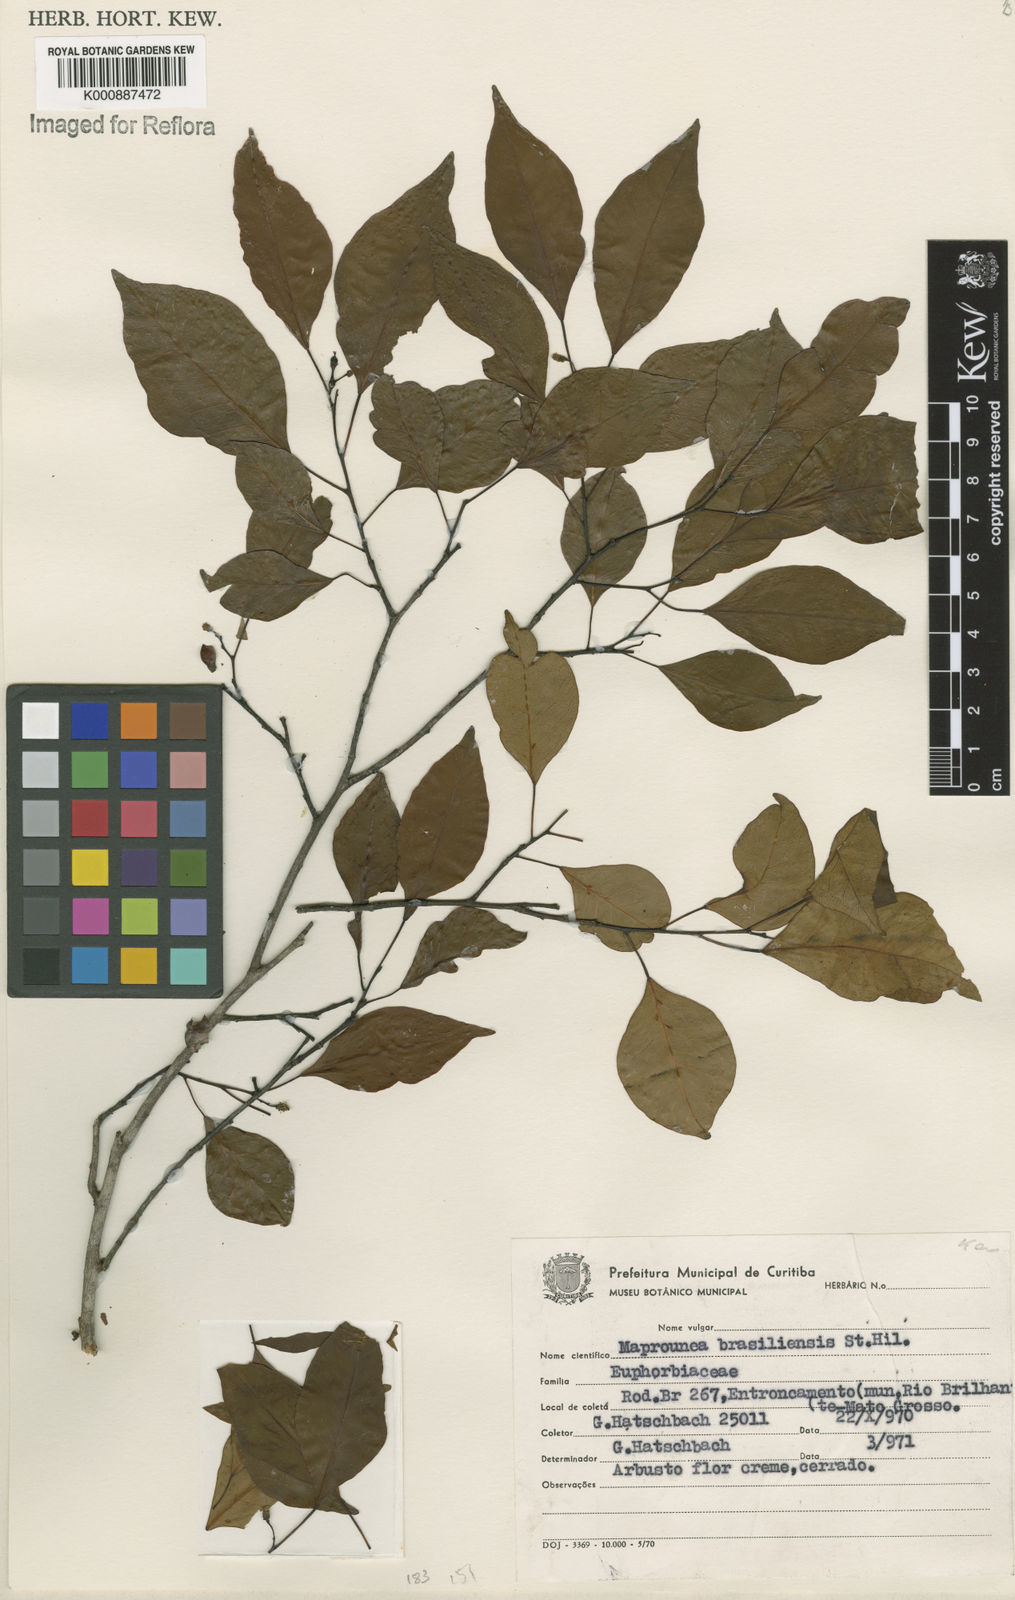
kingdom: Plantae
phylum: Tracheophyta
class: Magnoliopsida
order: Malpighiales
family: Euphorbiaceae
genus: Maprounea
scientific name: Maprounea brasiliensis
